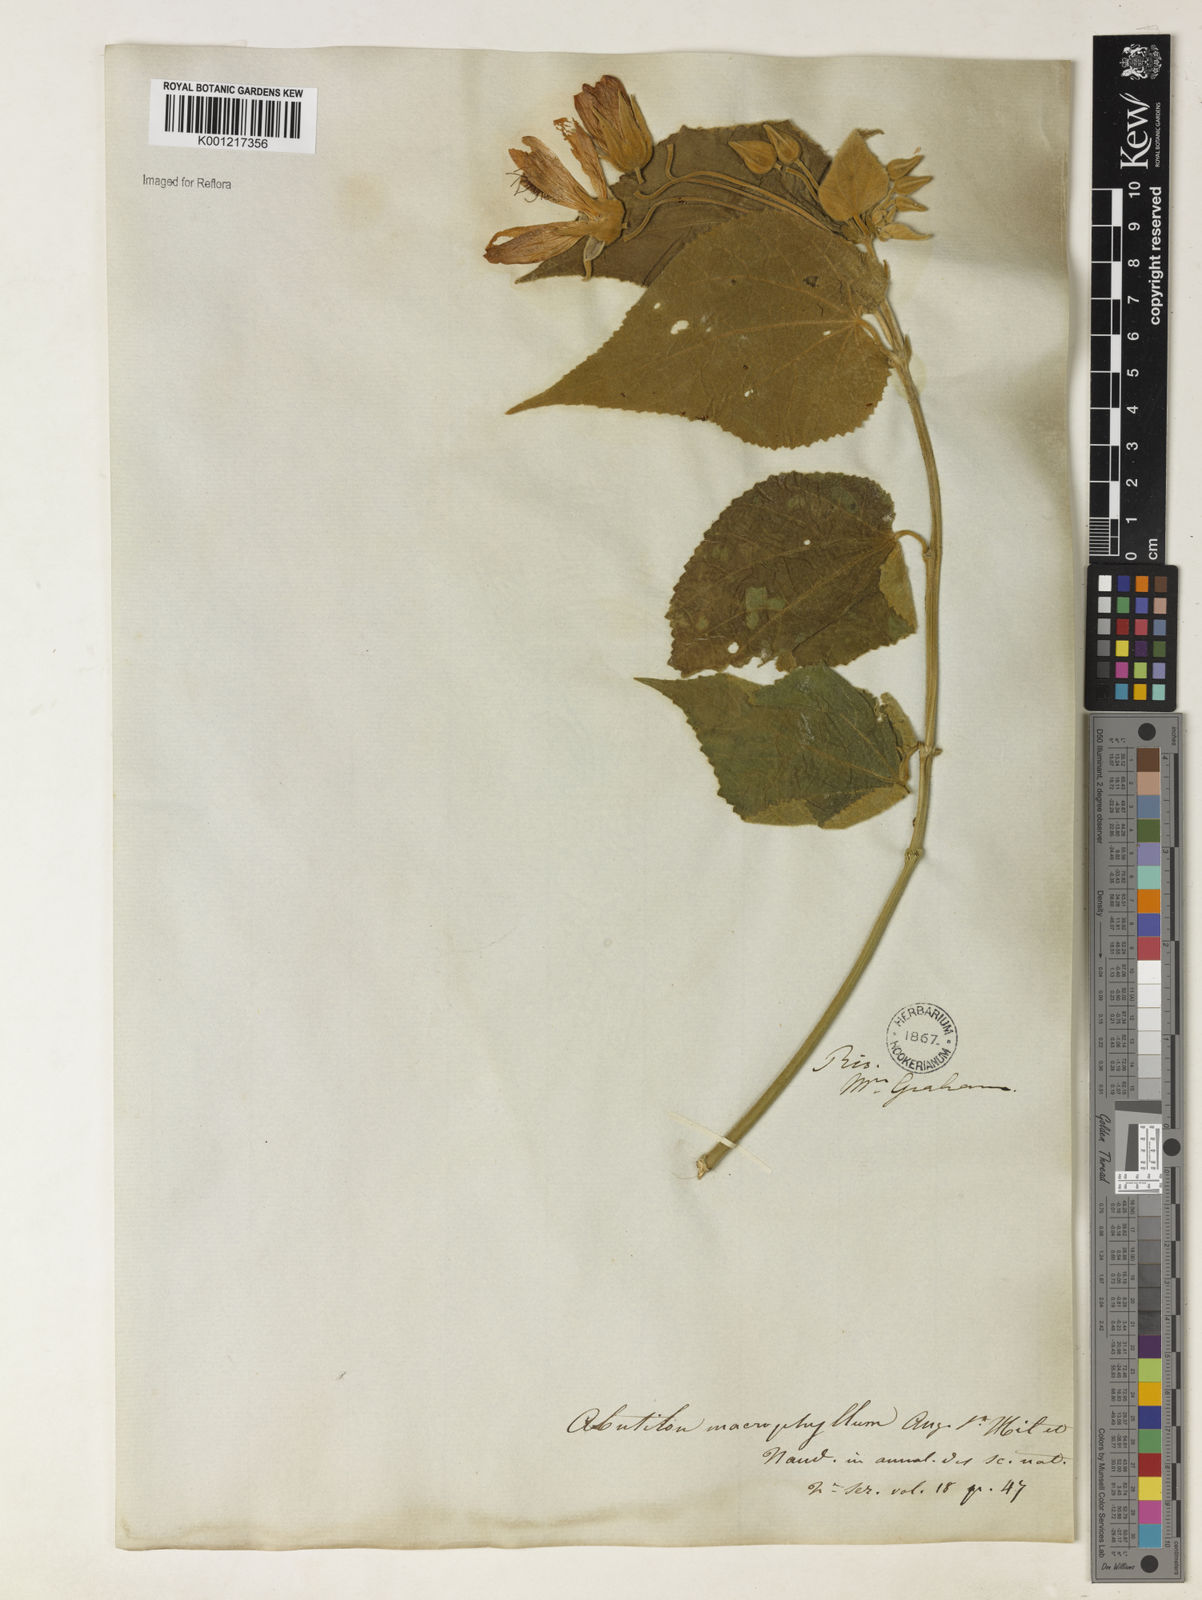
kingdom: Plantae
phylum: Tracheophyta
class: Magnoliopsida
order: Malvales
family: Malvaceae
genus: Callianthe
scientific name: Callianthe sellowiana
